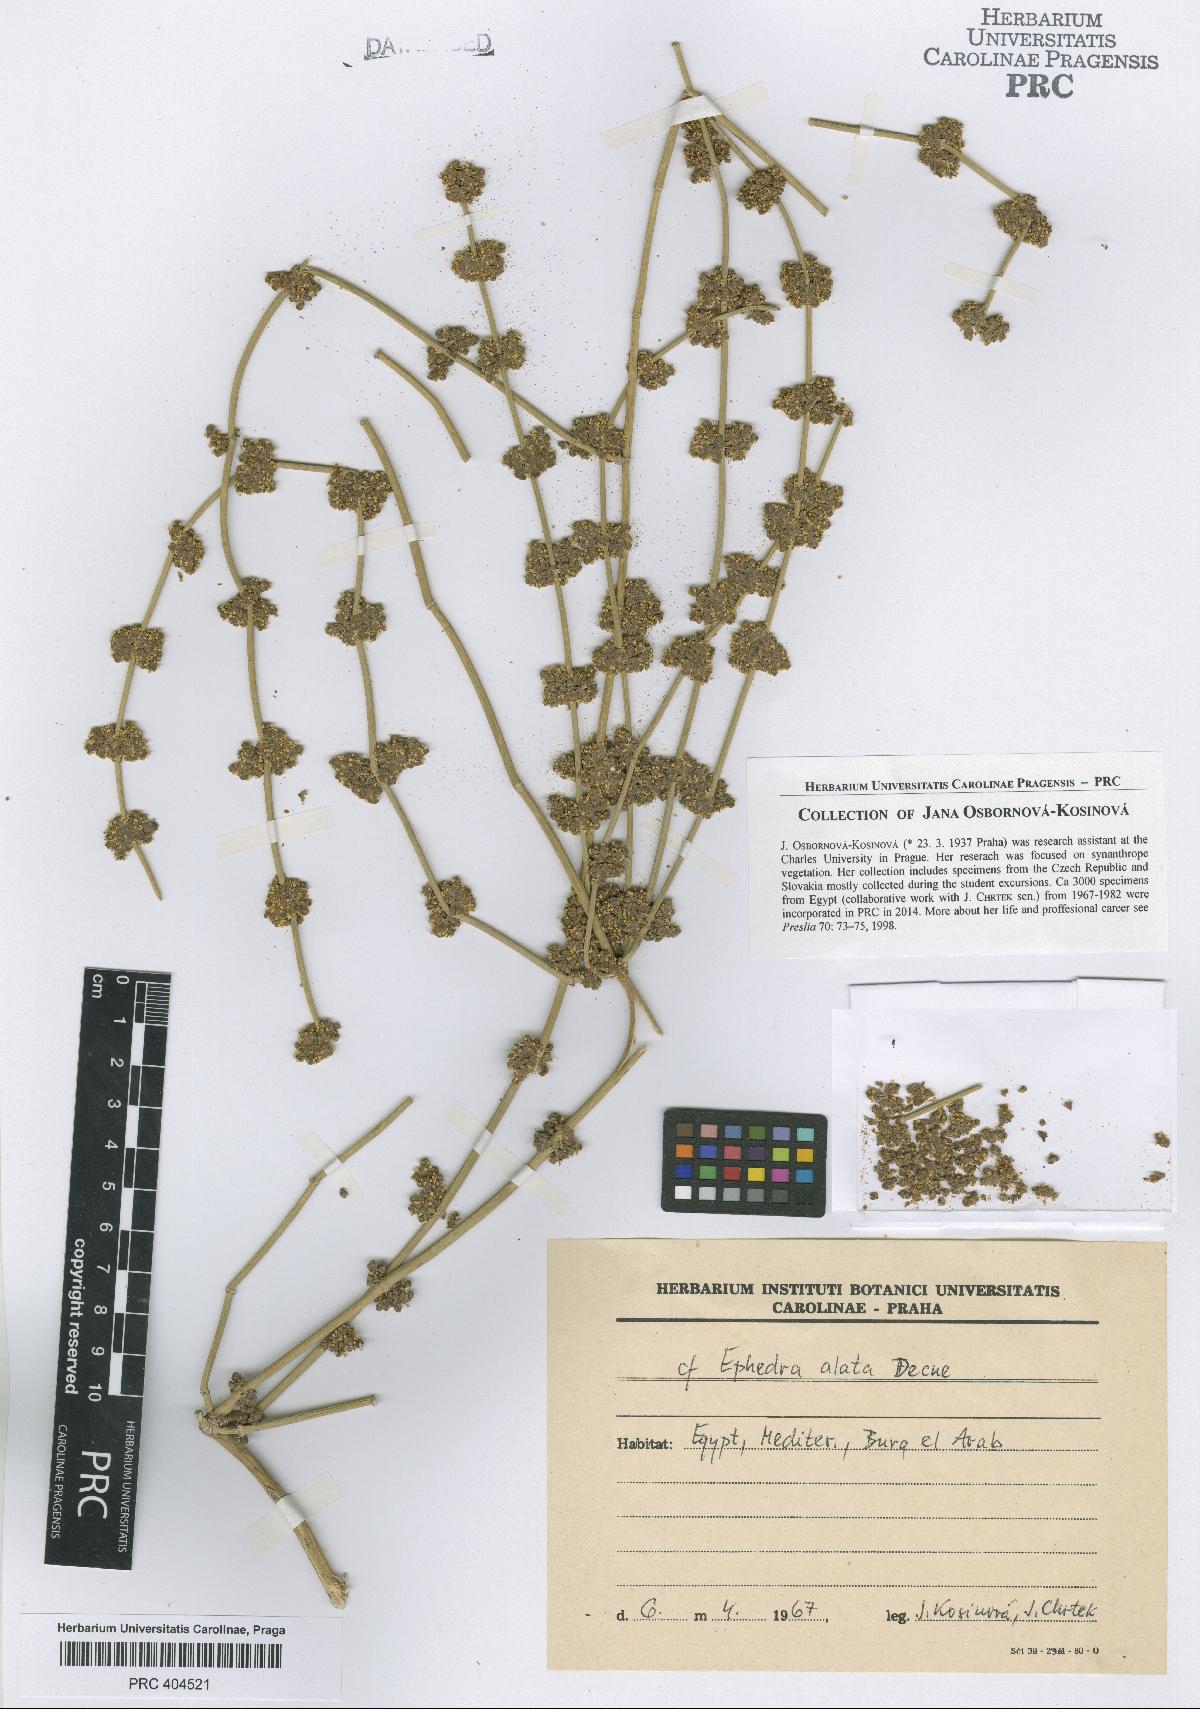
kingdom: Plantae
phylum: Tracheophyta
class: Gnetopsida
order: Ephedrales
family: Ephedraceae
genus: Ephedra
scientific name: Ephedra alata
